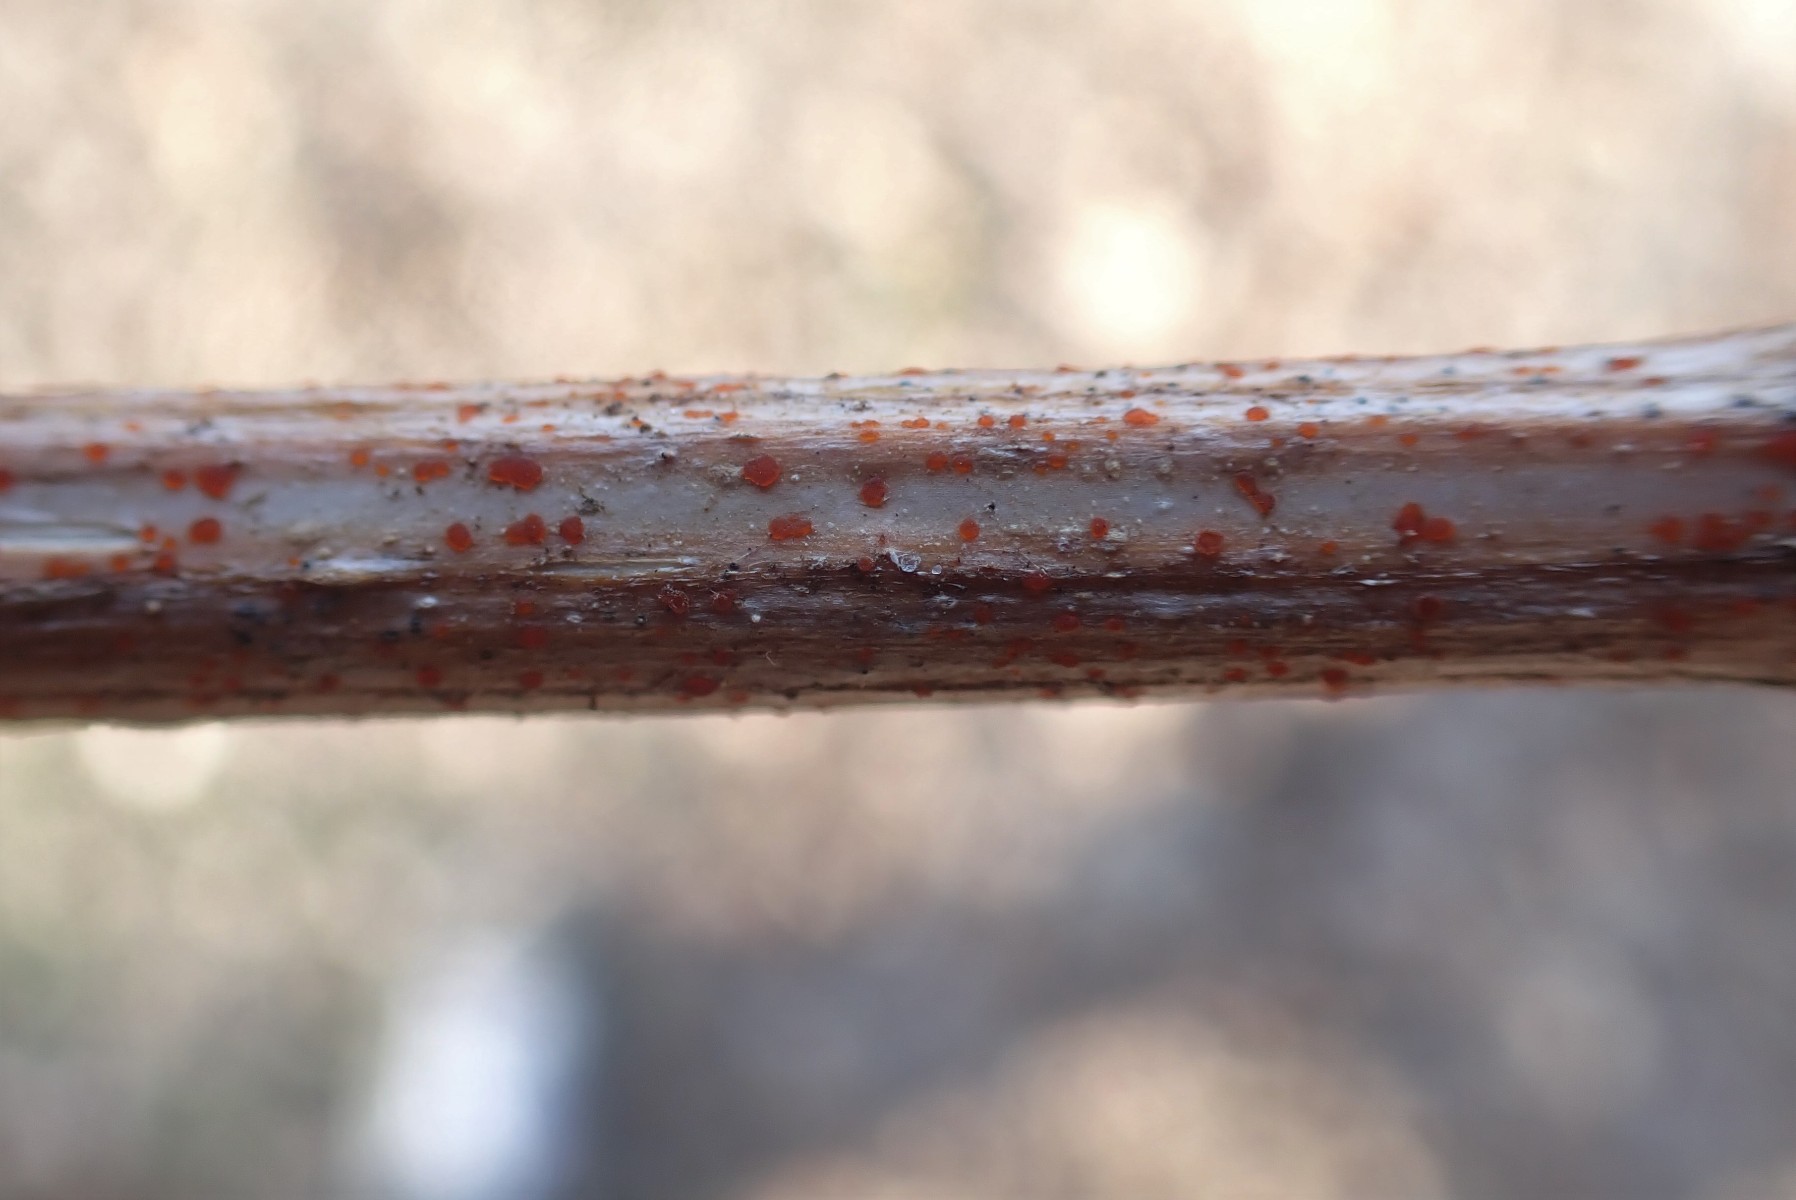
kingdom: Fungi
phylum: Ascomycota
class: Leotiomycetes
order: Helotiales
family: Calloriaceae
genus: Calloria
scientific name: Calloria urticae
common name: nælde-orangeskive
